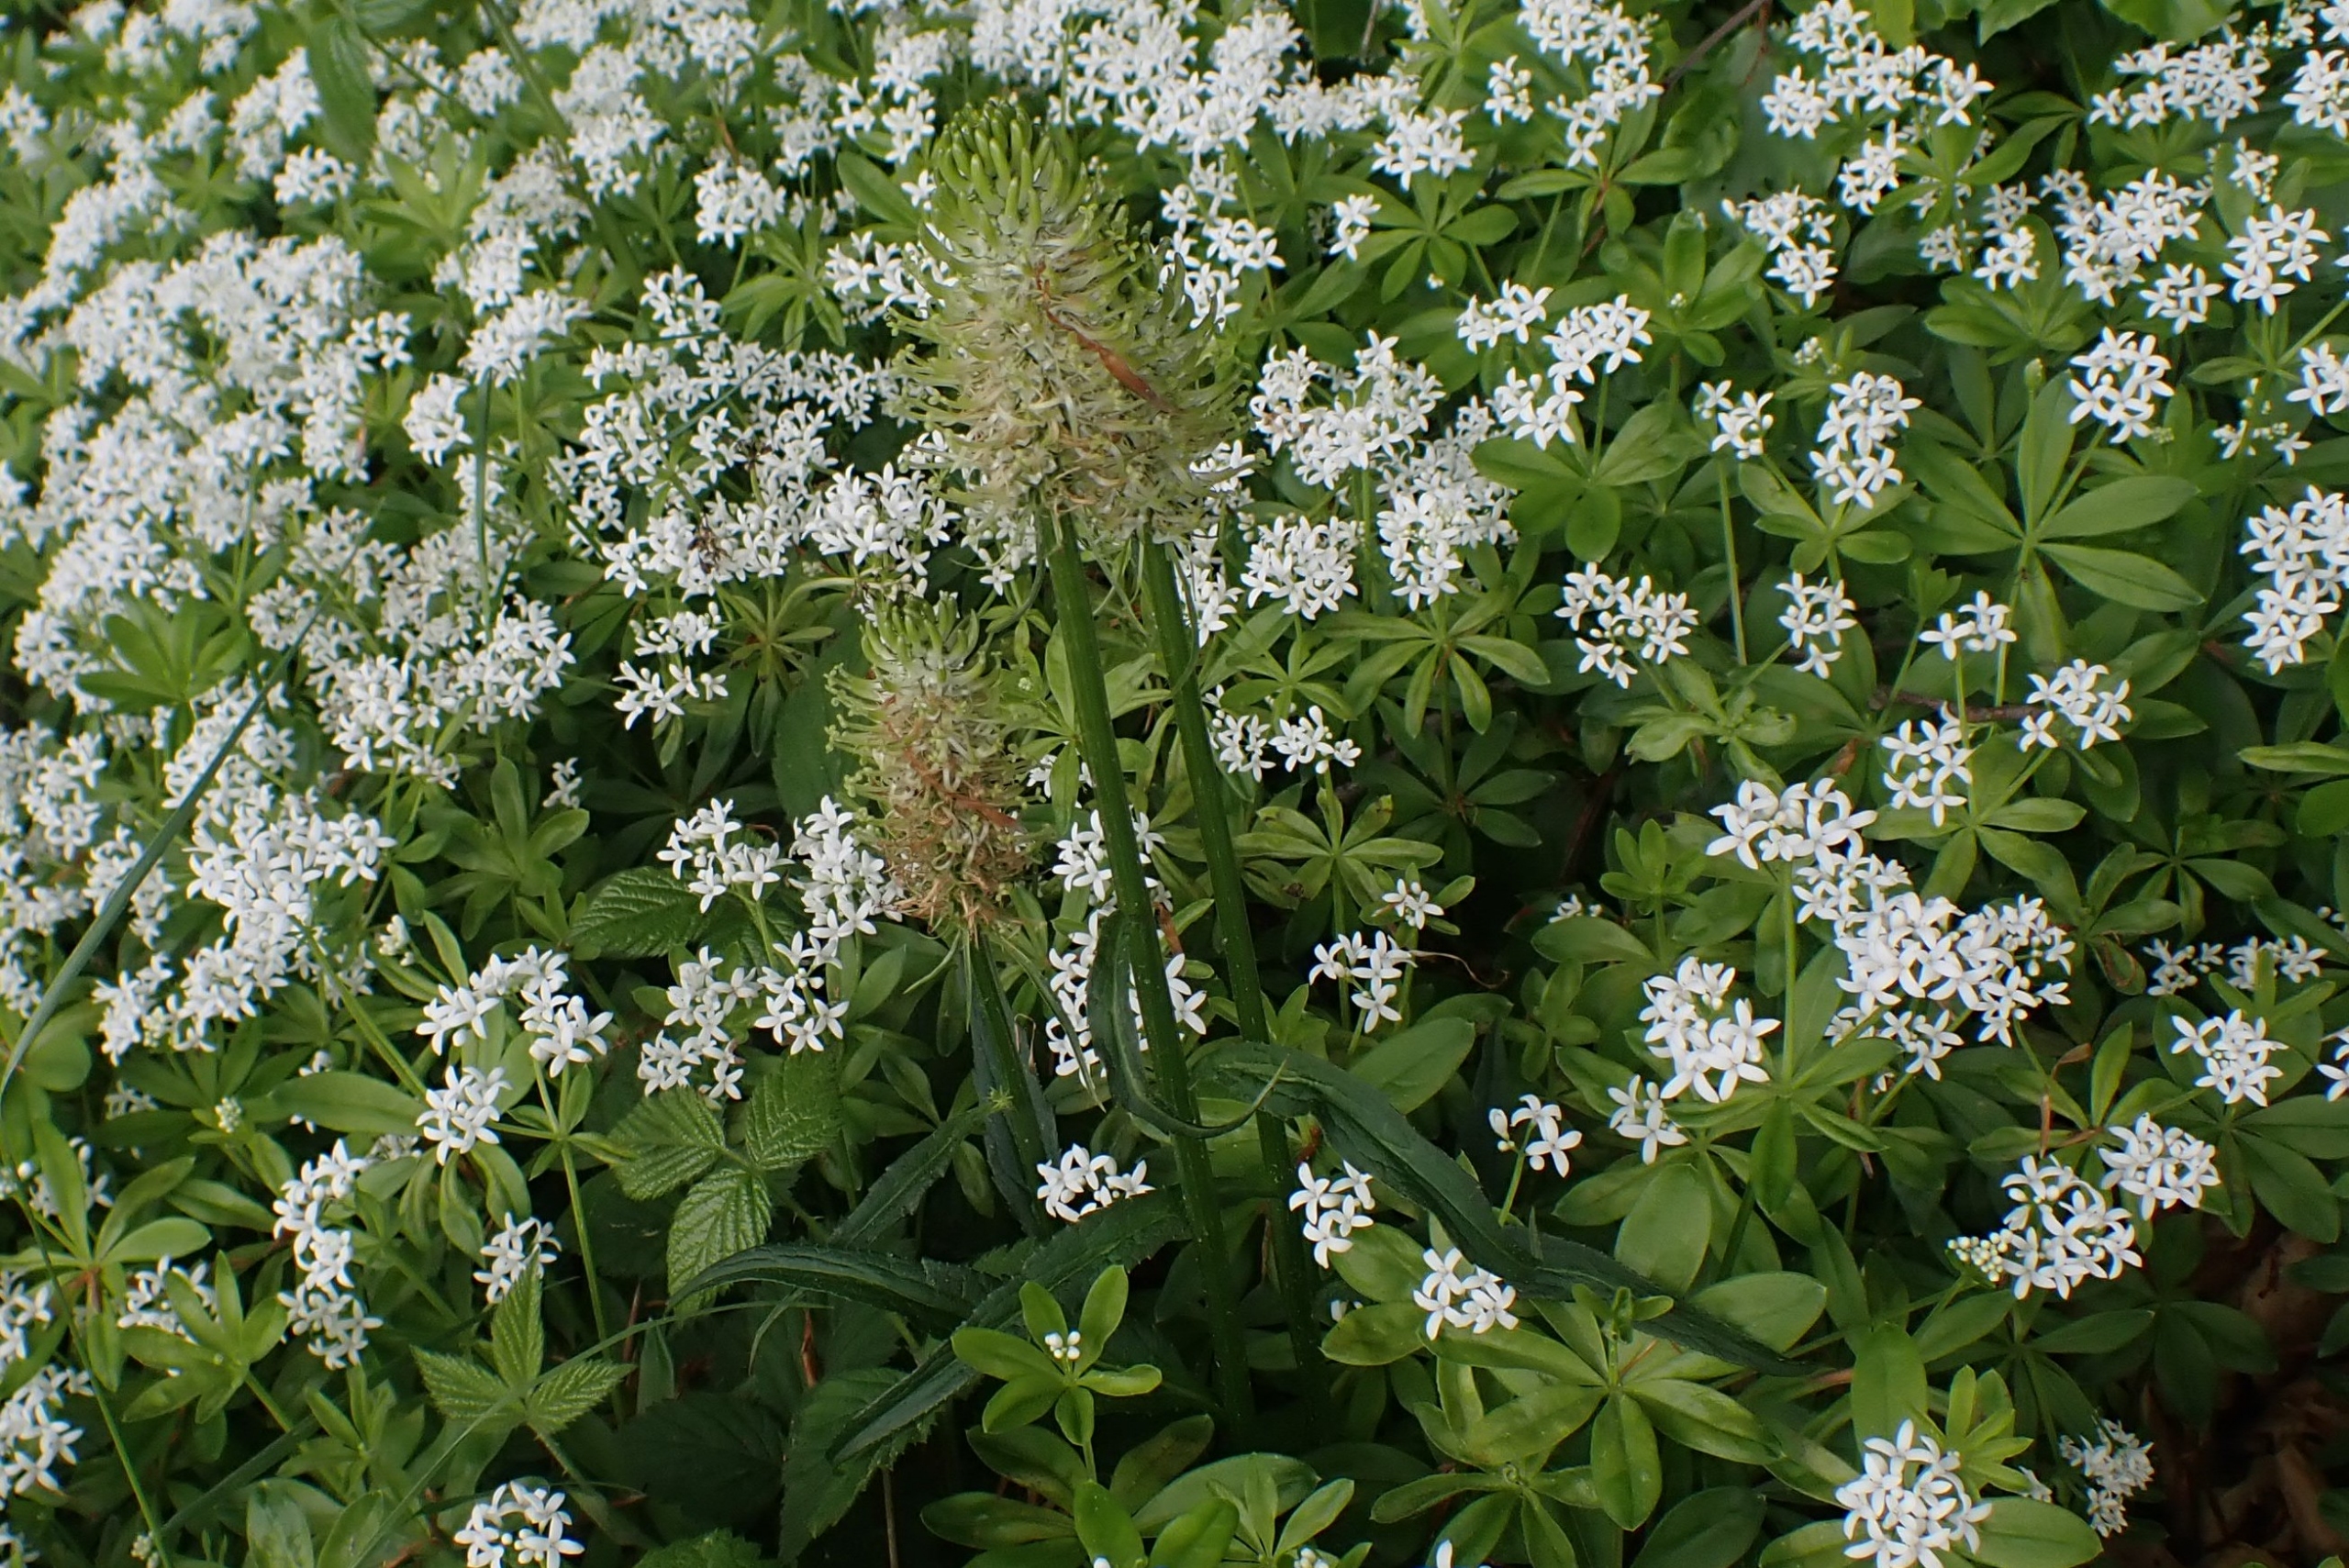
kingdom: Plantae
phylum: Tracheophyta
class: Magnoliopsida
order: Asterales
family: Campanulaceae
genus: Phyteuma
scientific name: Phyteuma spicatum
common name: Aks-rapunsel
